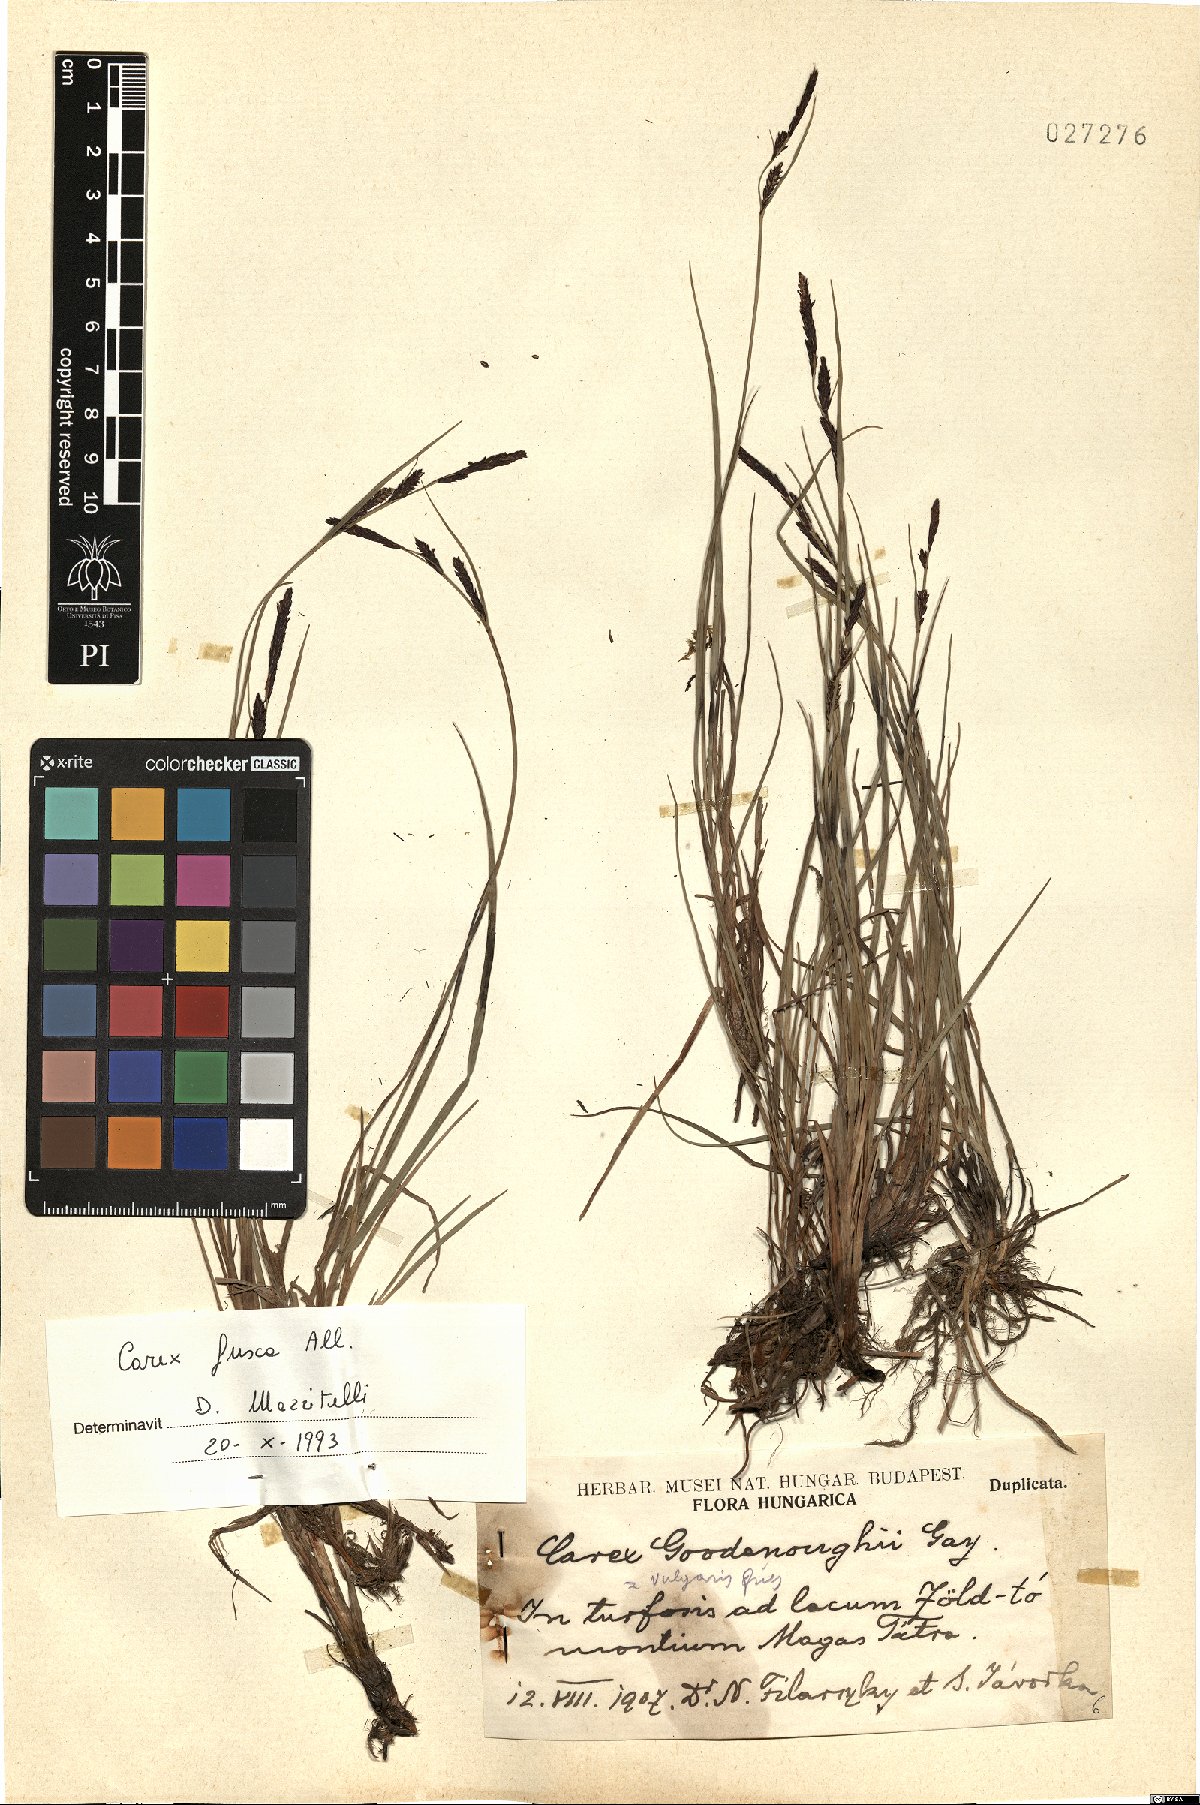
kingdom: Plantae
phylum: Tracheophyta
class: Liliopsida
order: Poales
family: Cyperaceae
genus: Carex
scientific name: Carex nigra
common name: Common sedge
